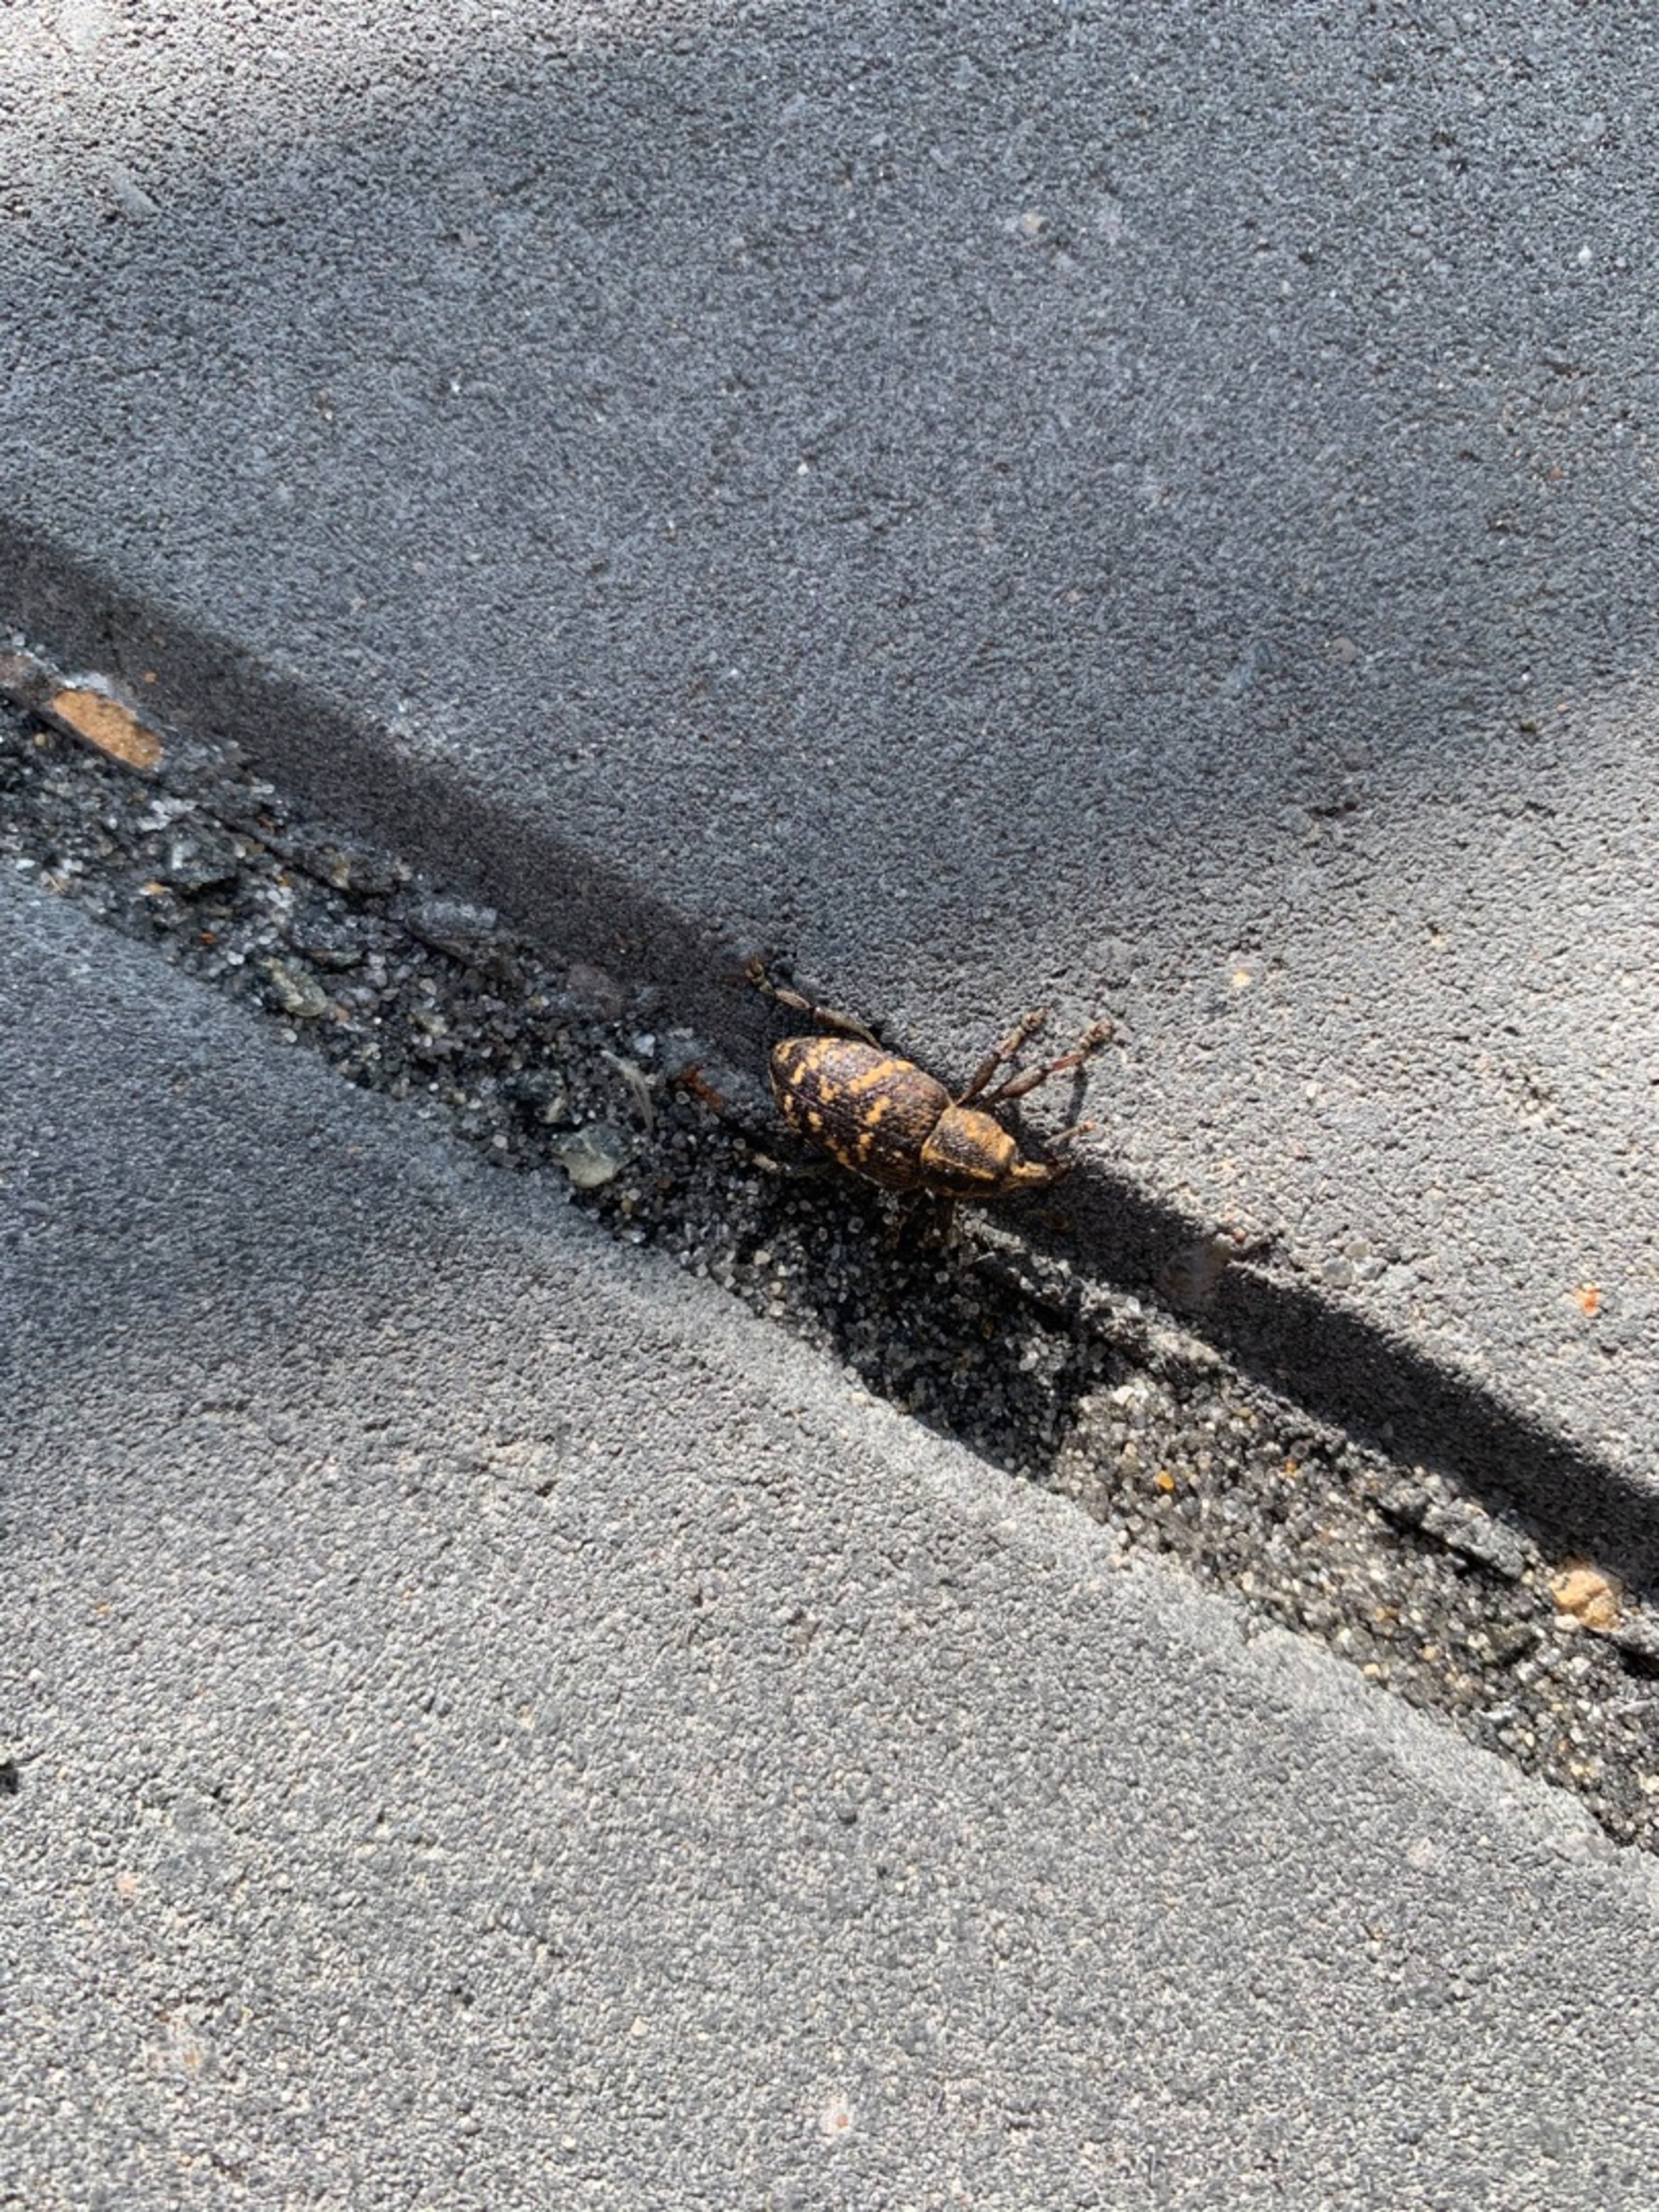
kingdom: Animalia
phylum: Arthropoda
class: Insecta
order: Coleoptera
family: Curculionidae
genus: Hylobius
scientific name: Hylobius abietis
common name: Stor nåletræsnudebille
